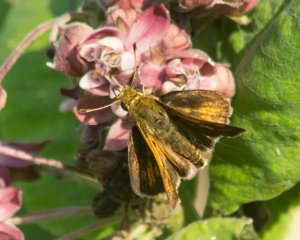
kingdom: Animalia
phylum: Arthropoda
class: Insecta
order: Lepidoptera
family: Hesperiidae
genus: Polites
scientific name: Polites coras
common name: Peck's Skipper
